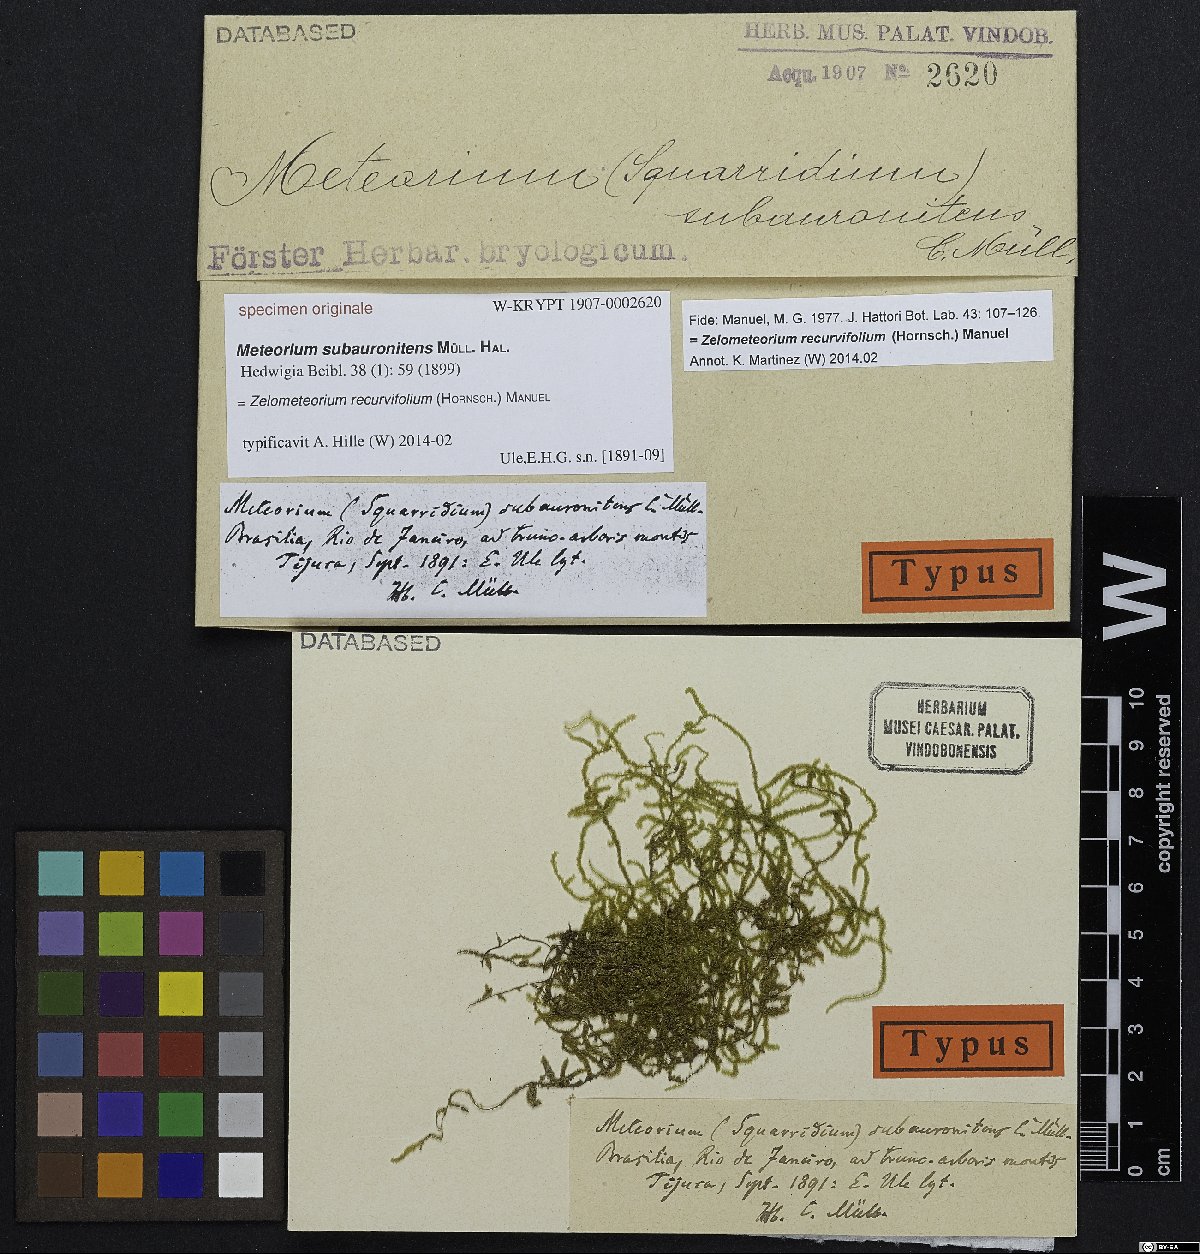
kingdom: Plantae
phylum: Bryophyta
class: Bryopsida
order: Hypnales
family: Meteoriaceae
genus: Meteorium
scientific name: Meteorium
